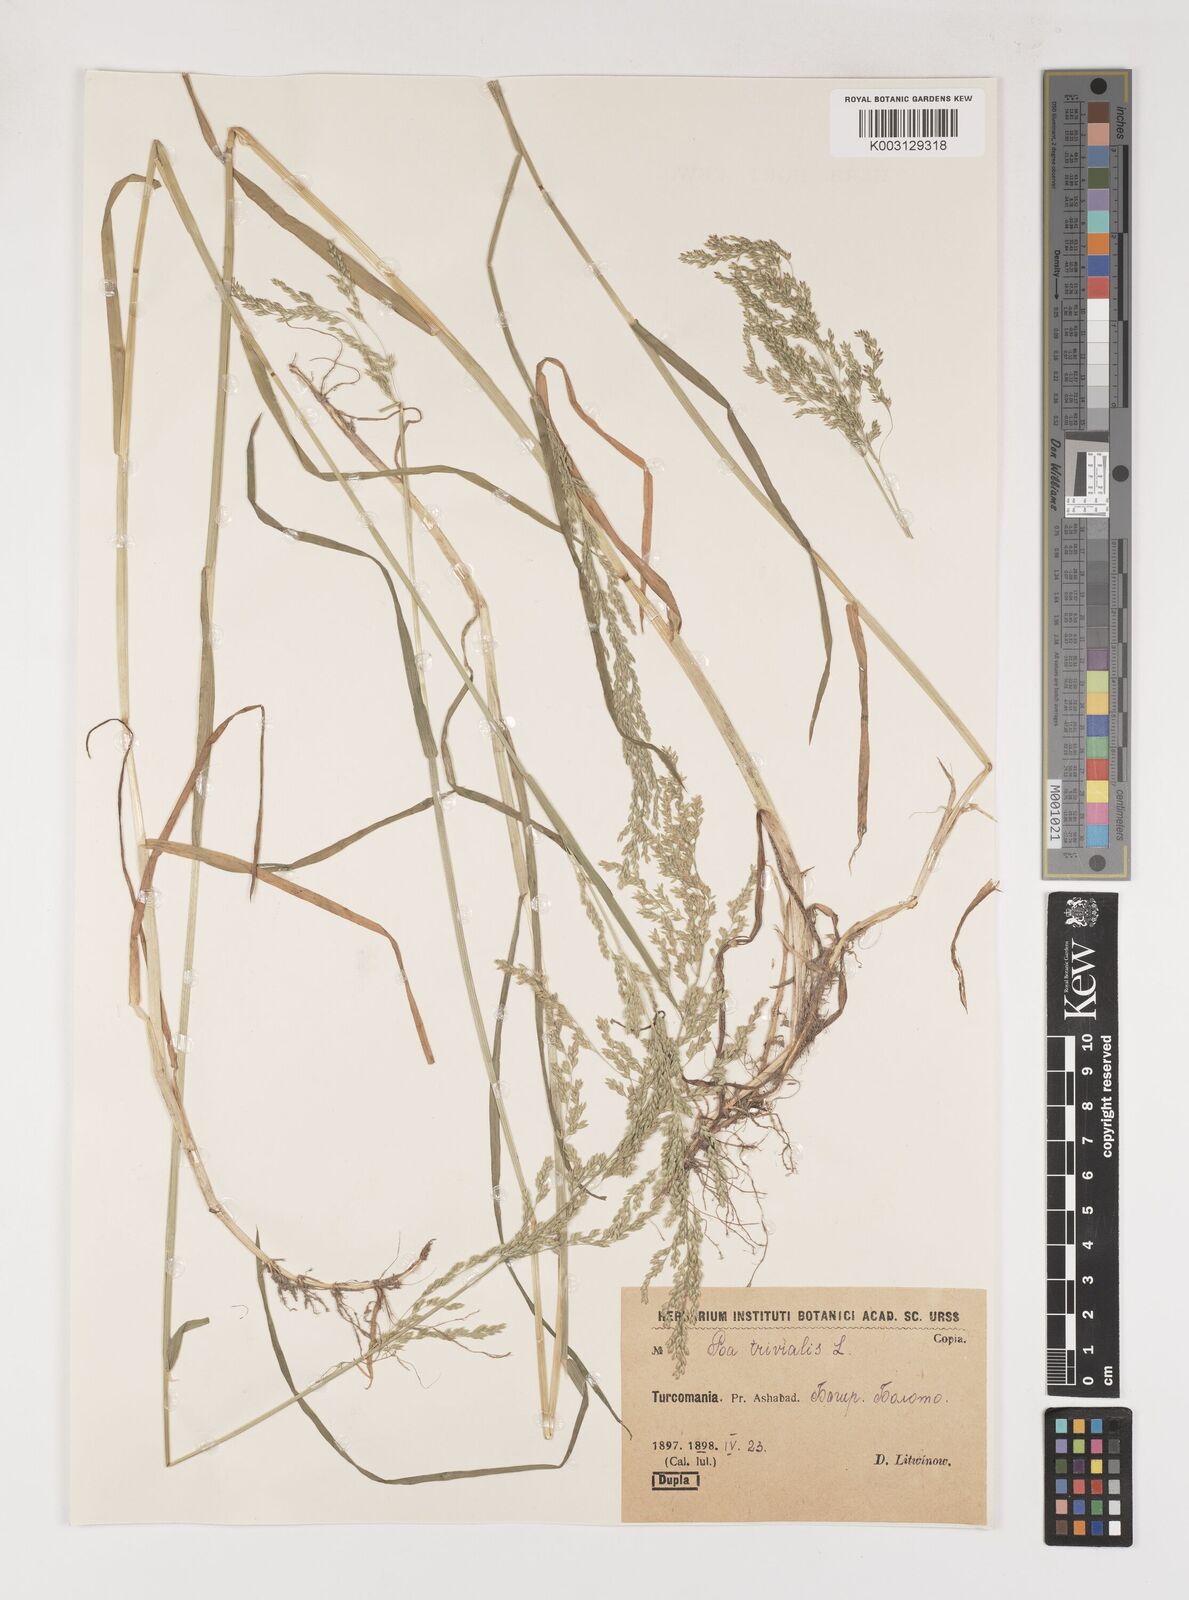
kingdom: Plantae
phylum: Tracheophyta
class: Liliopsida
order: Poales
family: Poaceae
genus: Poa
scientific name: Poa trivialis
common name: Rough bluegrass
